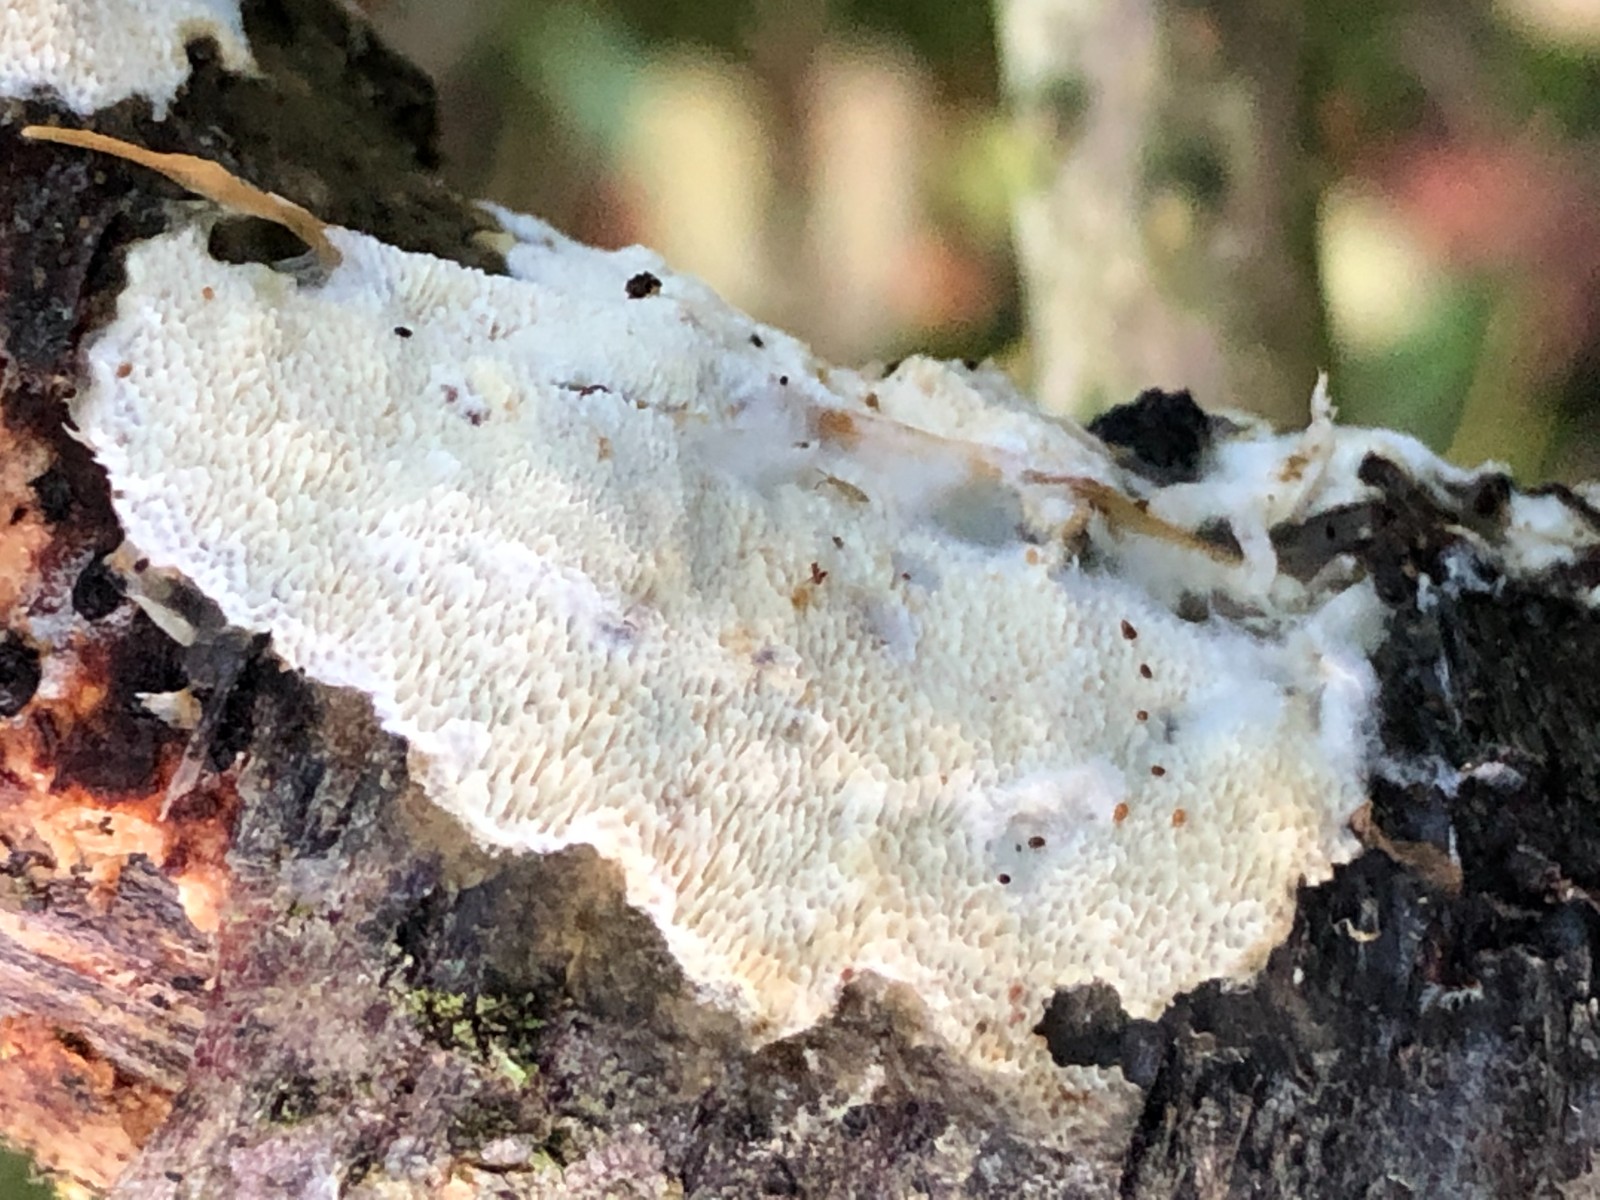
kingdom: Fungi
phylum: Basidiomycota
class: Agaricomycetes
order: Polyporales
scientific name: Polyporales
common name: poresvampordenen
